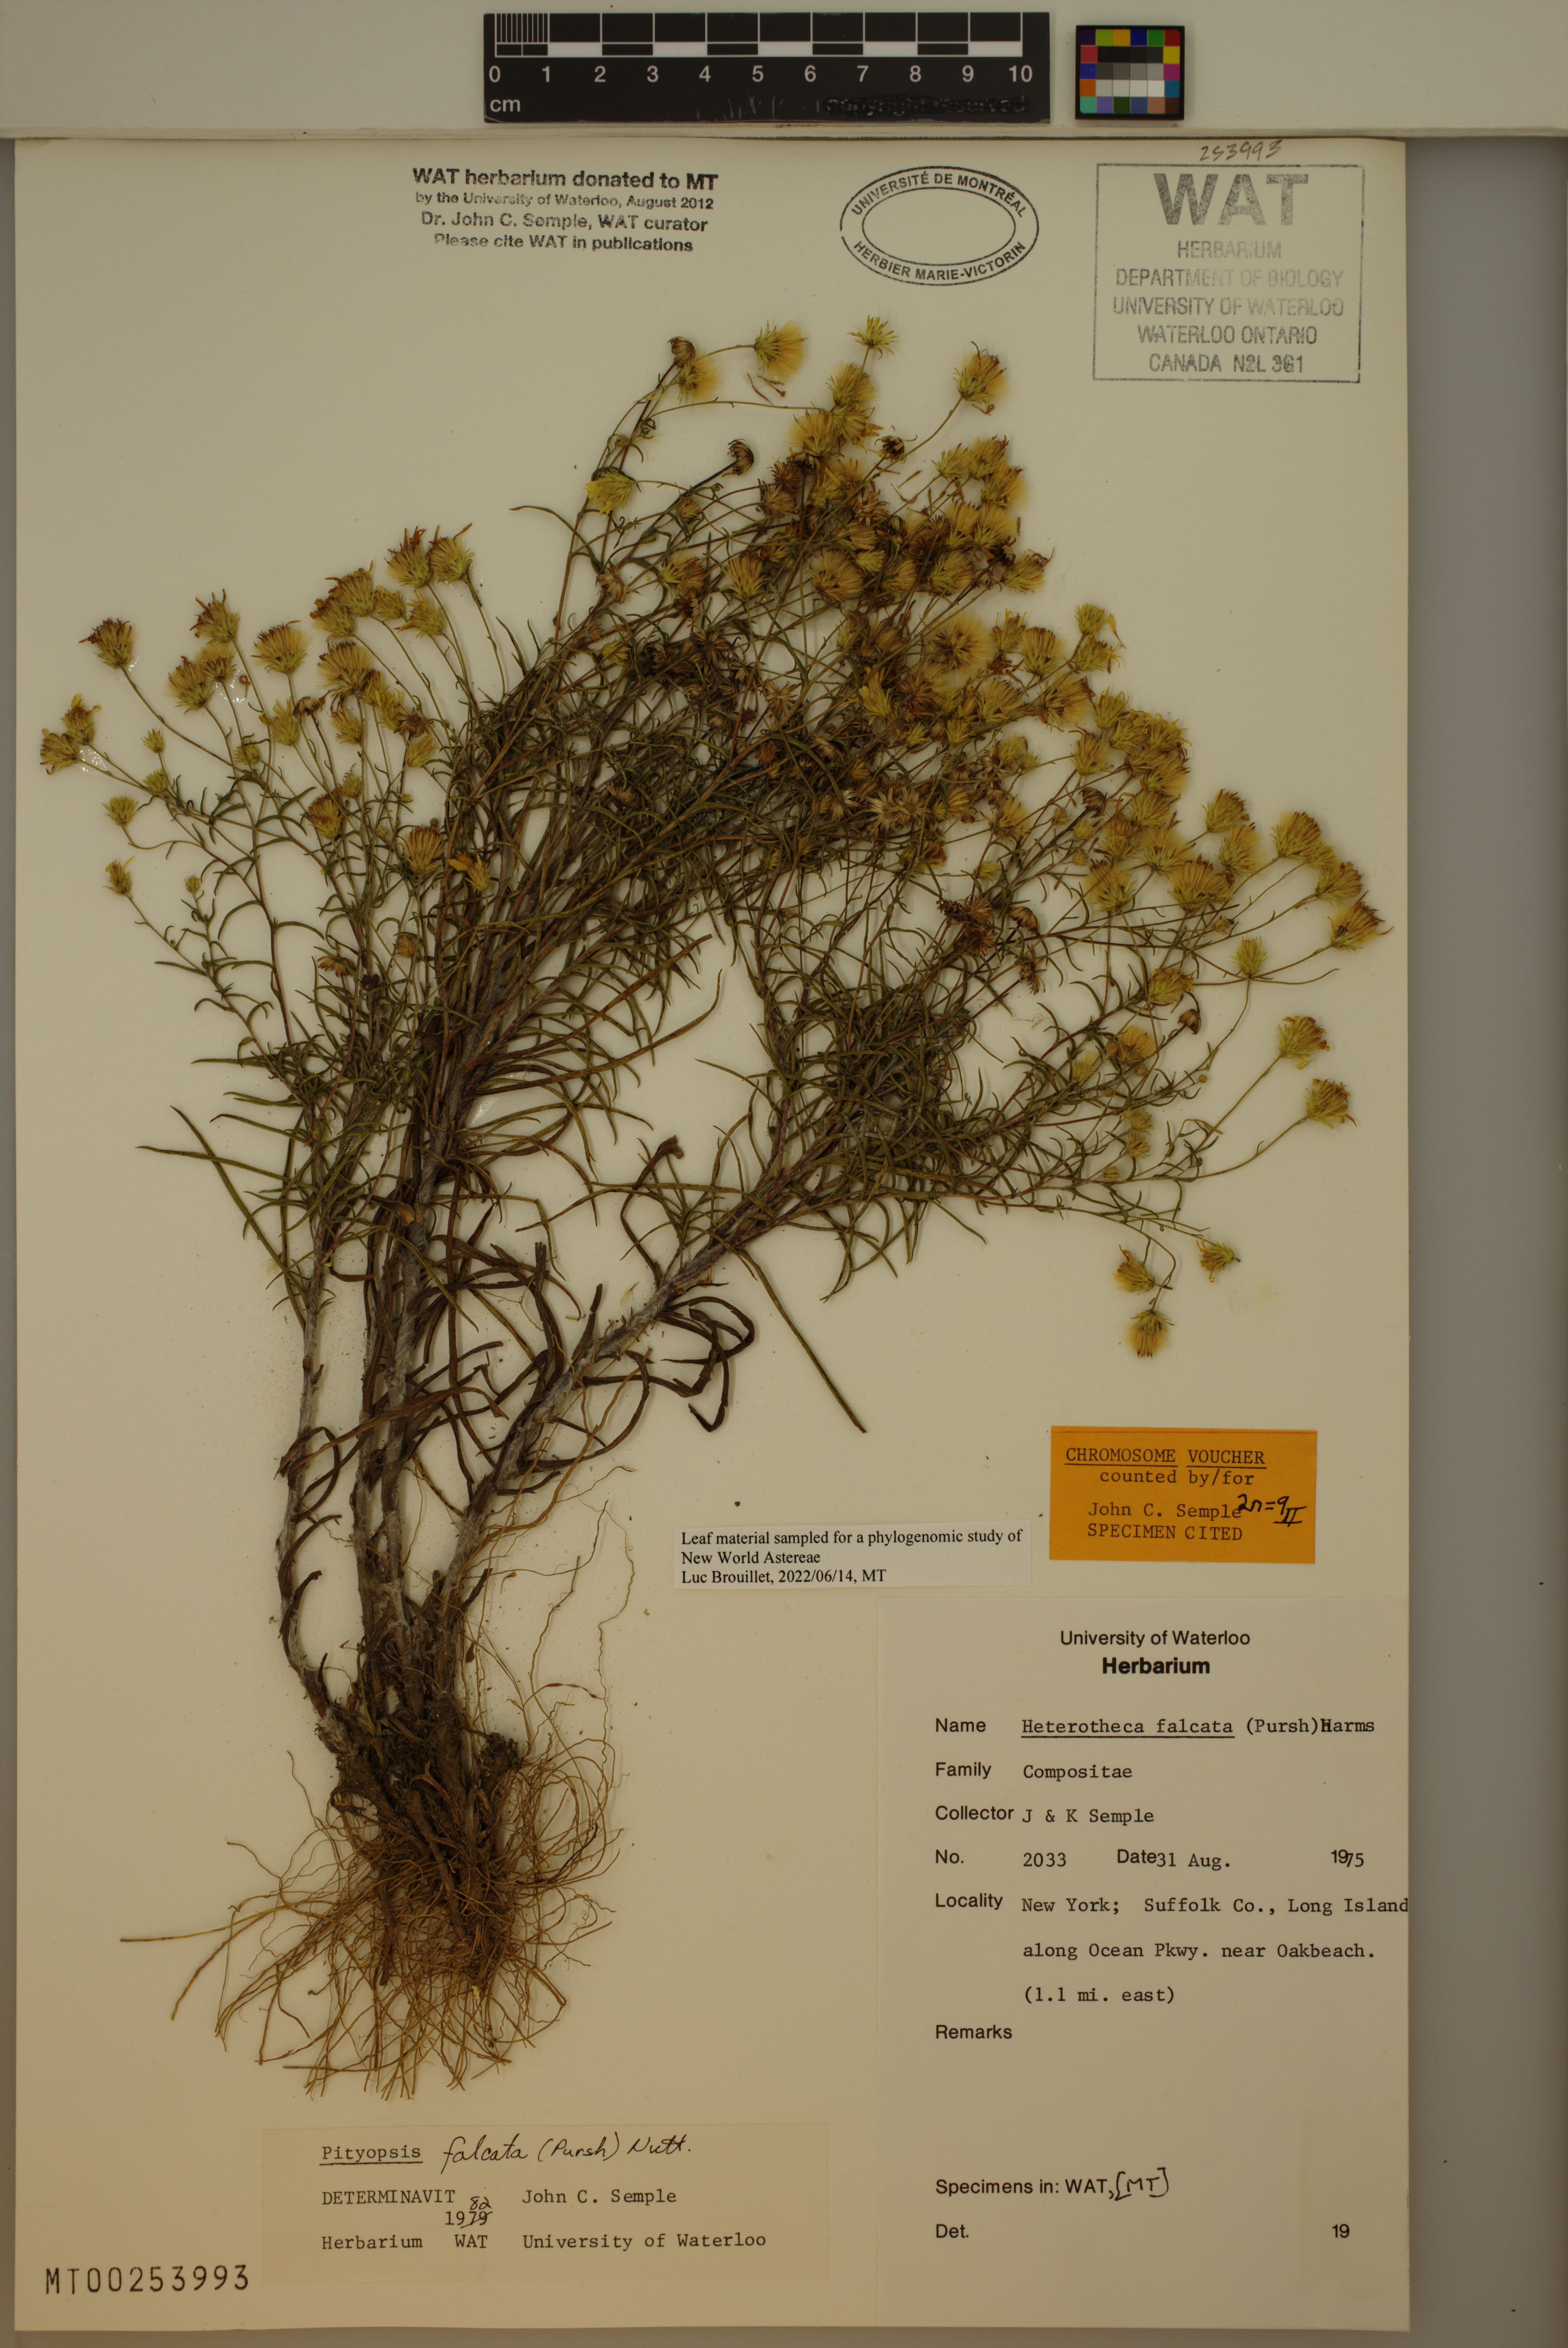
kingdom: Plantae
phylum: Tracheophyta
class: Magnoliopsida
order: Asterales
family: Asteraceae
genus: Pityopsis
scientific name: Pityopsis falcata
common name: Sickle-leaved goldenaster
